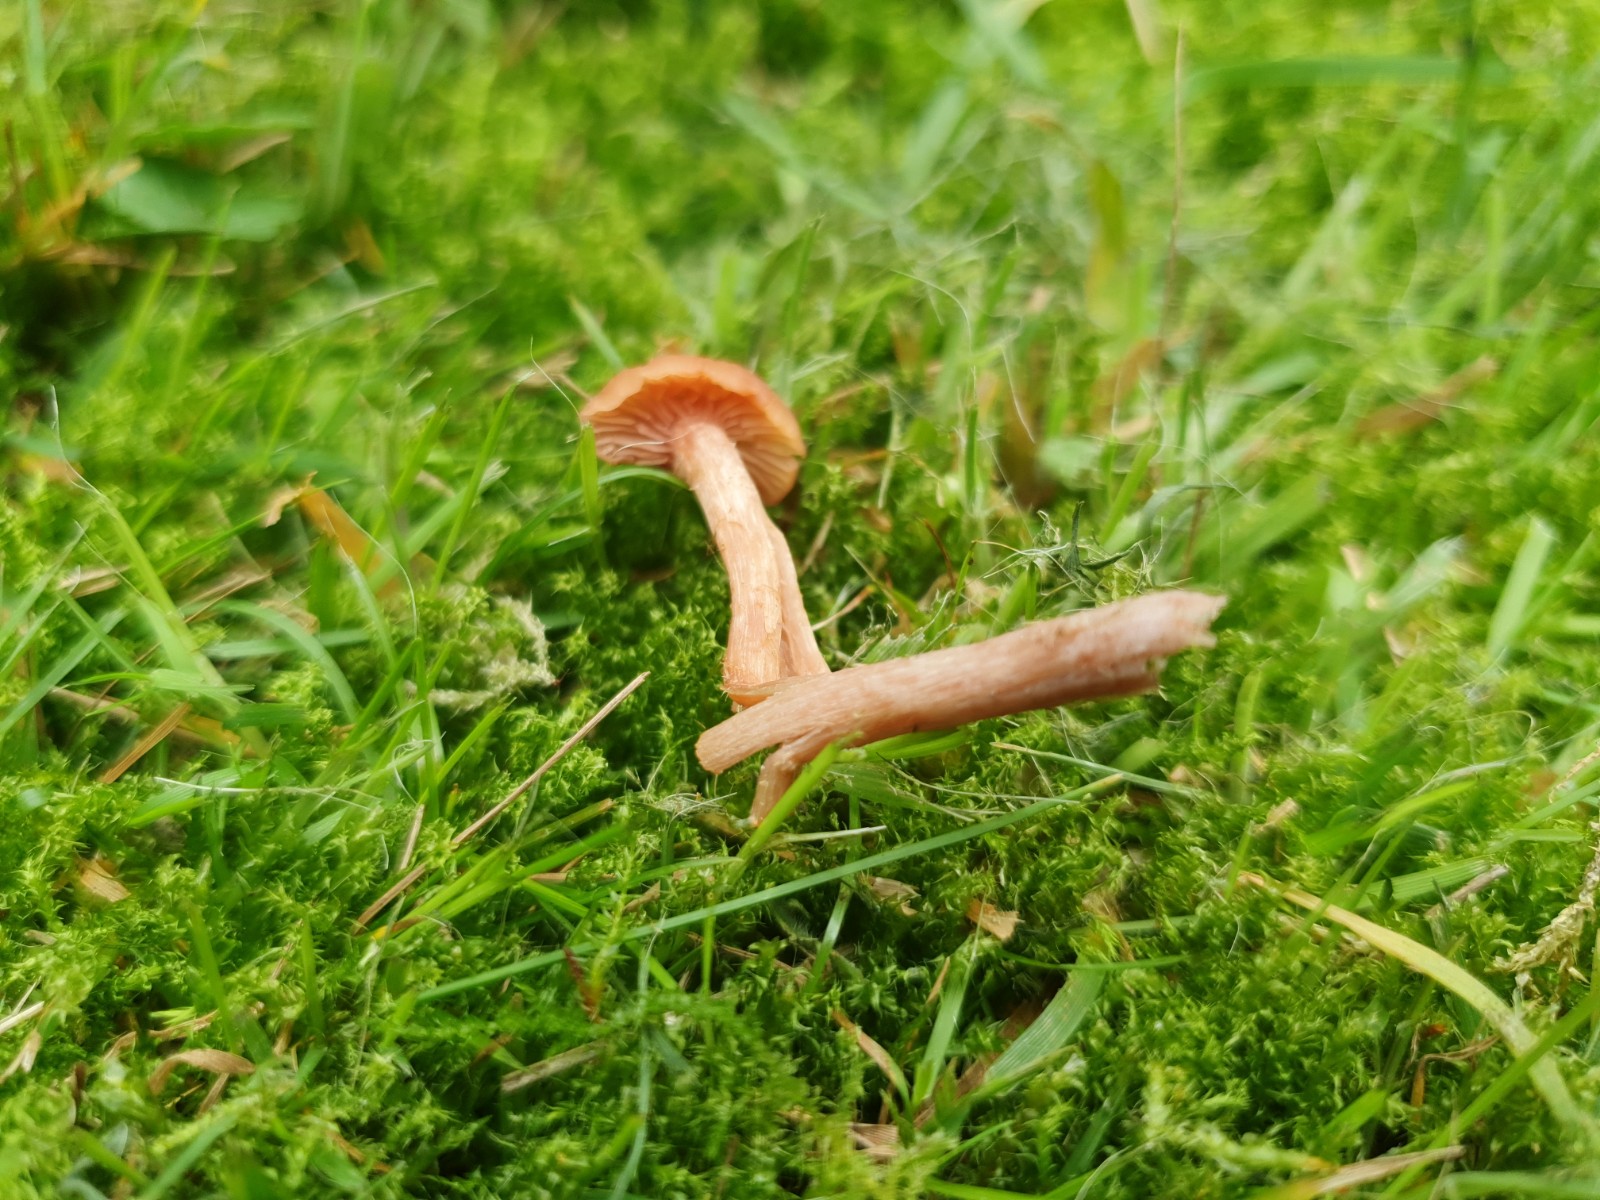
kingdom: Fungi
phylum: Basidiomycota
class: Agaricomycetes
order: Agaricales
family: Hydnangiaceae
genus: Laccaria
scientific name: Laccaria laccata
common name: rød ametysthat
